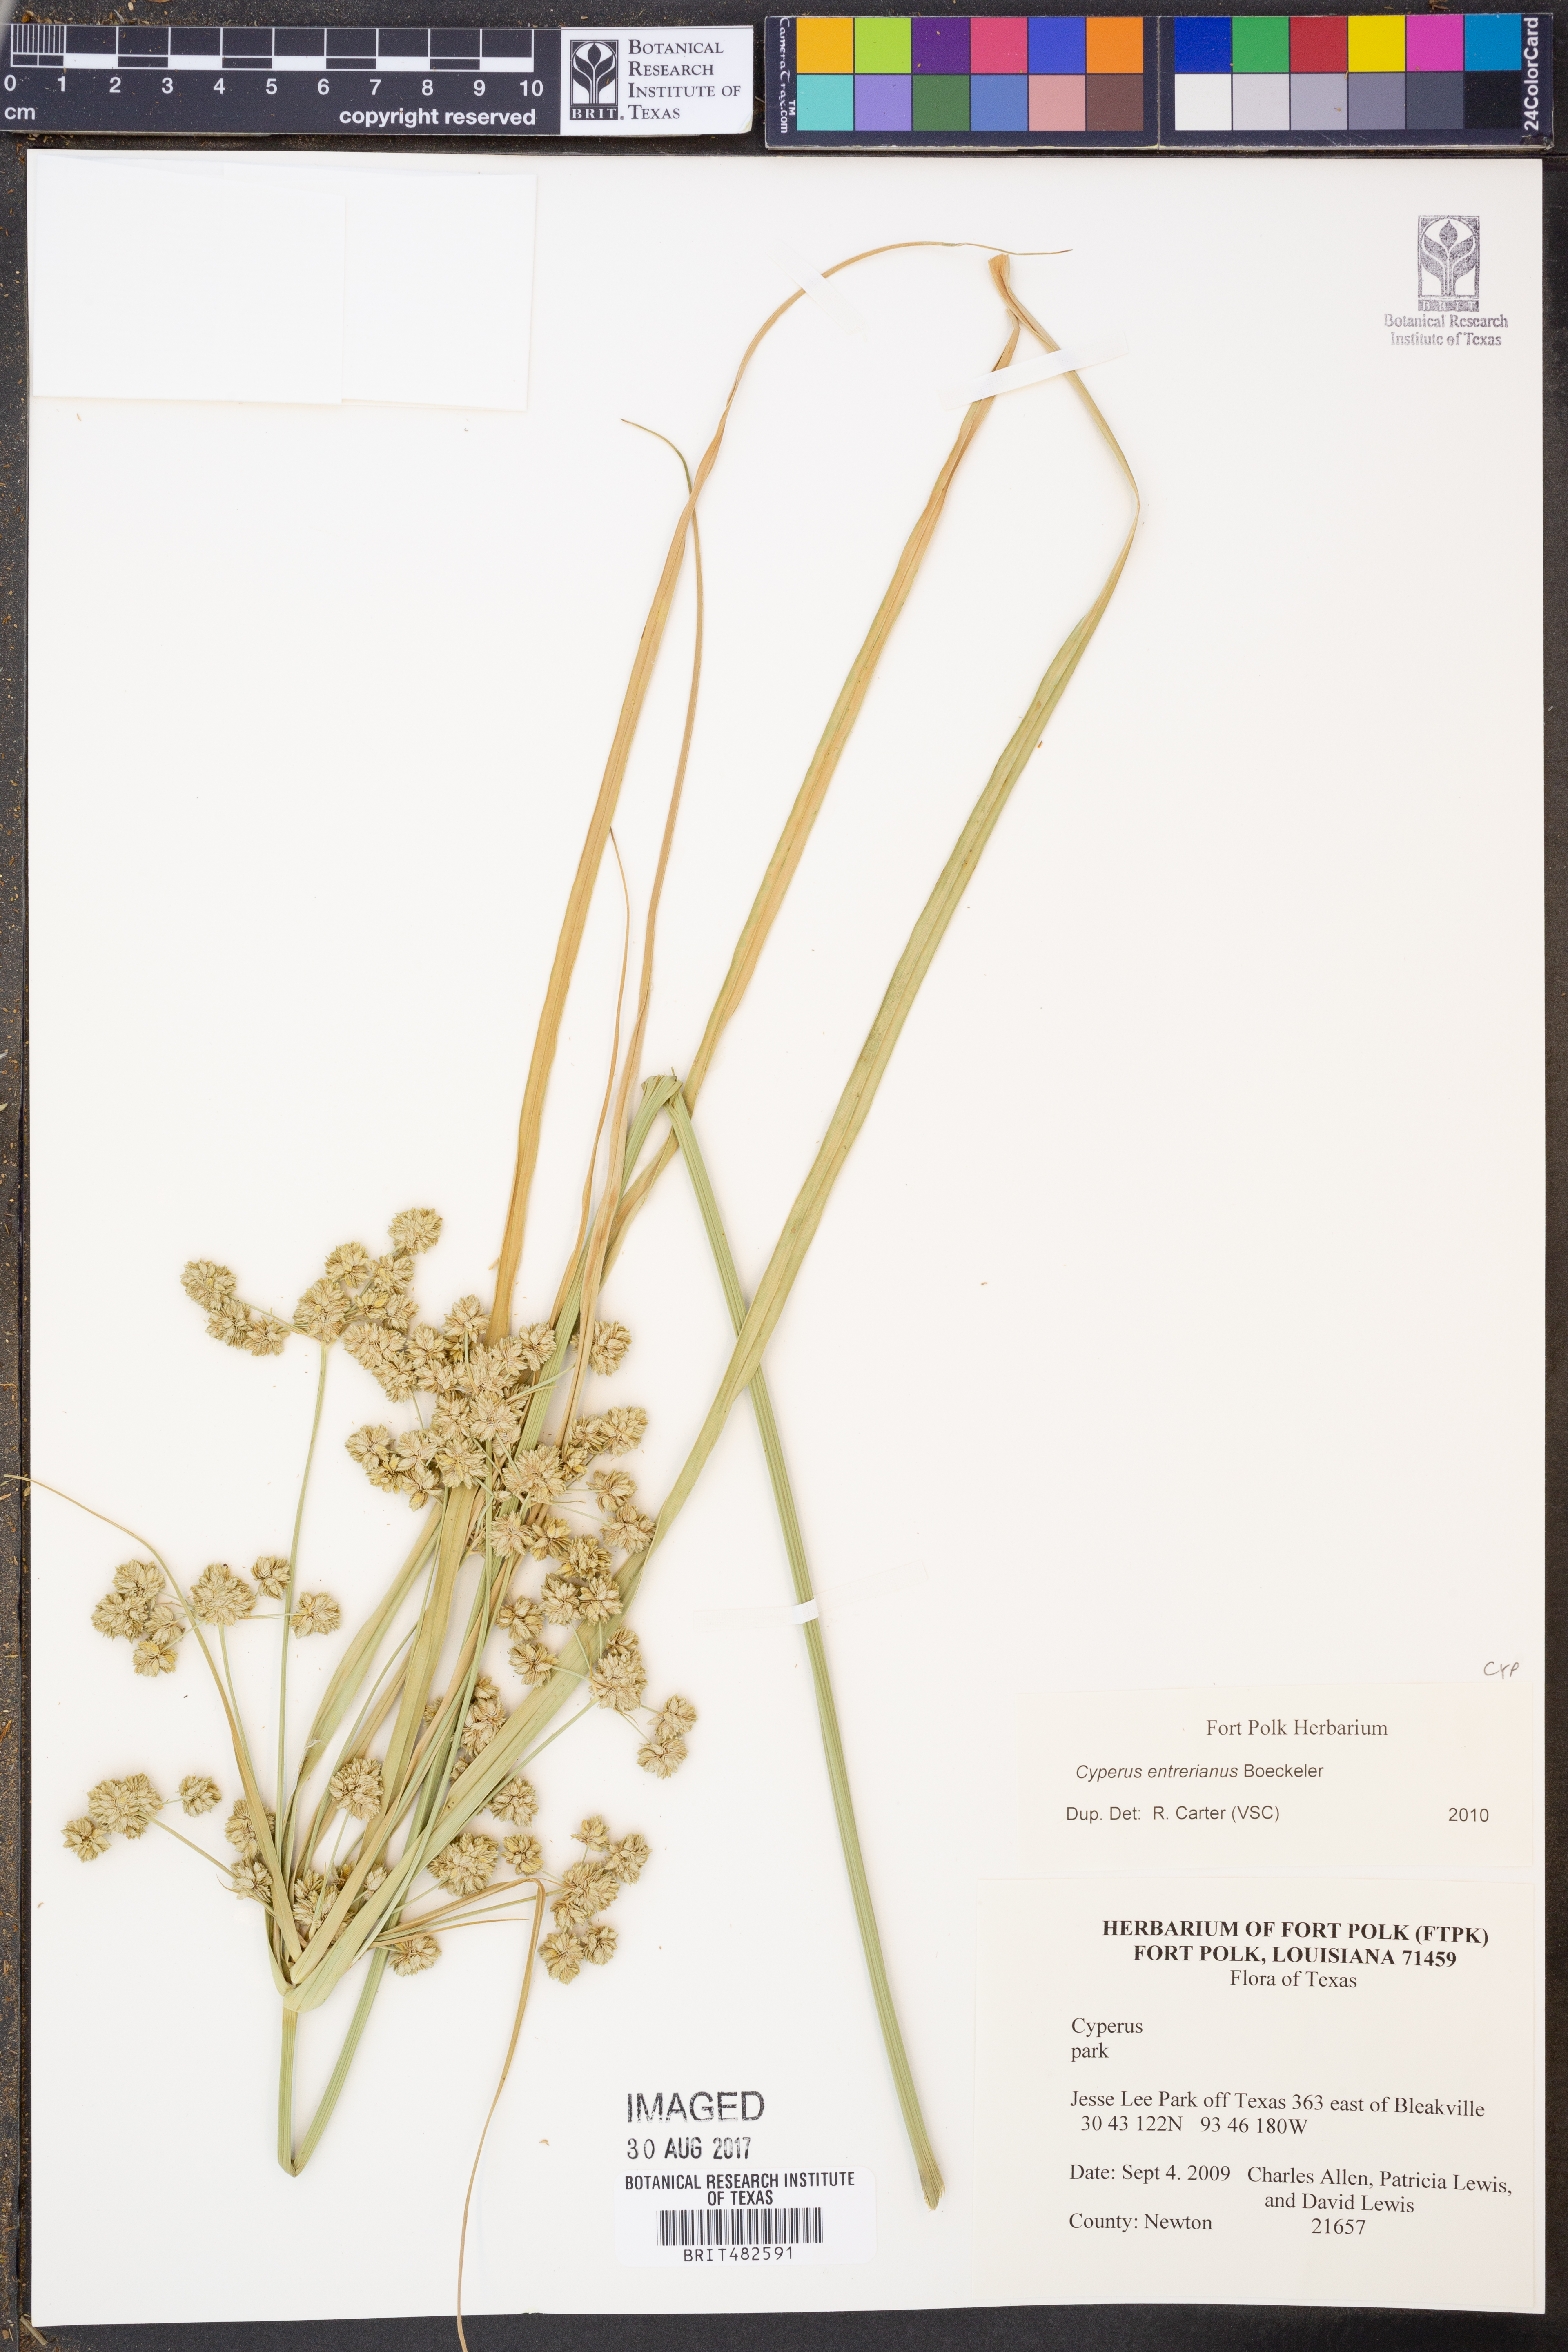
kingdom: Plantae
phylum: Tracheophyta
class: Liliopsida
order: Poales
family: Cyperaceae
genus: Cyperus
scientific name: Cyperus entrerianus
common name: Woodrush flatsedge
